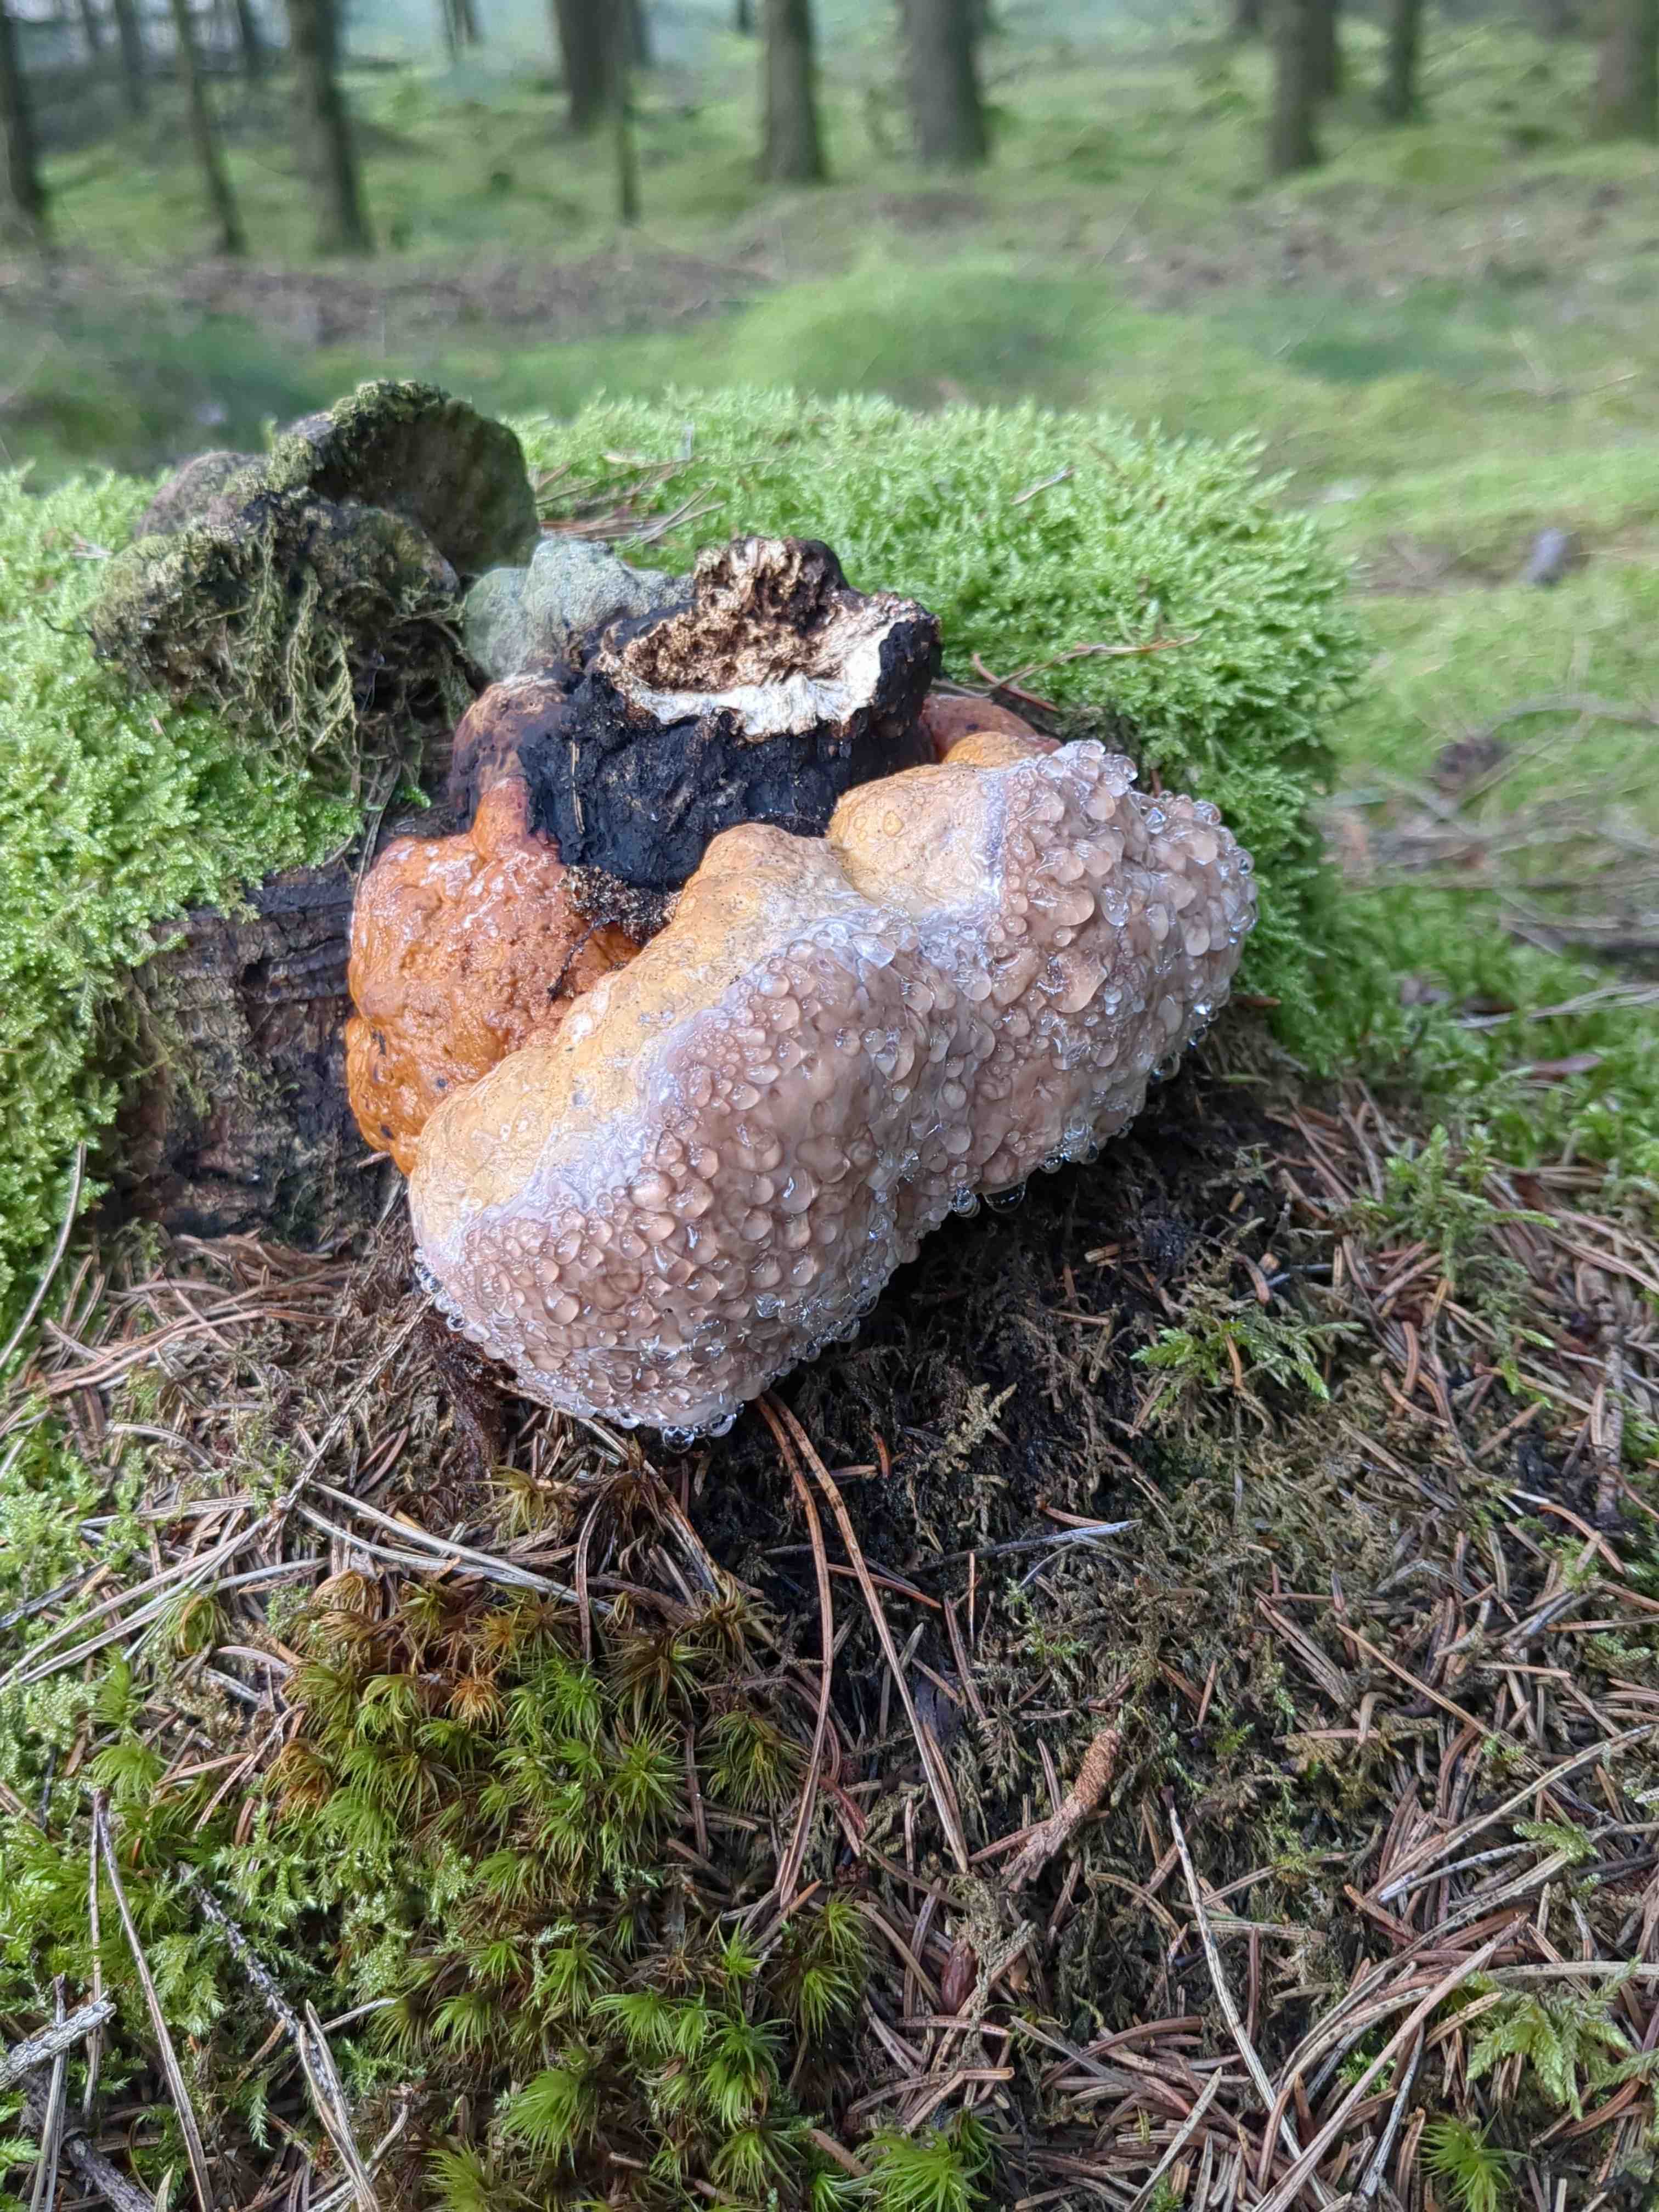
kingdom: Fungi
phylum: Basidiomycota
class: Agaricomycetes
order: Polyporales
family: Fomitopsidaceae
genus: Fomitopsis
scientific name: Fomitopsis pinicola
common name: randbæltet hovporesvamp
